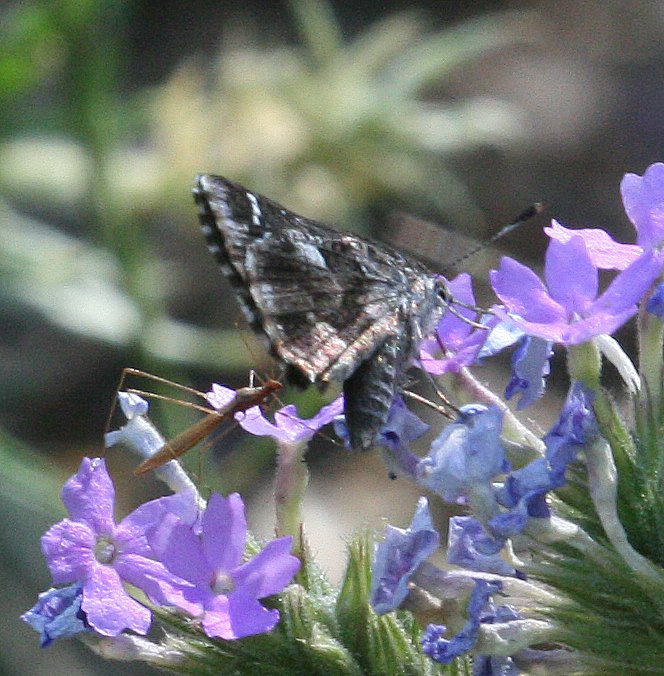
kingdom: Animalia
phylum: Arthropoda
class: Insecta
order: Lepidoptera
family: Hesperiidae
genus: Mastor
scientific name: Mastor nysa
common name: Nysa Roadside-Skipper
